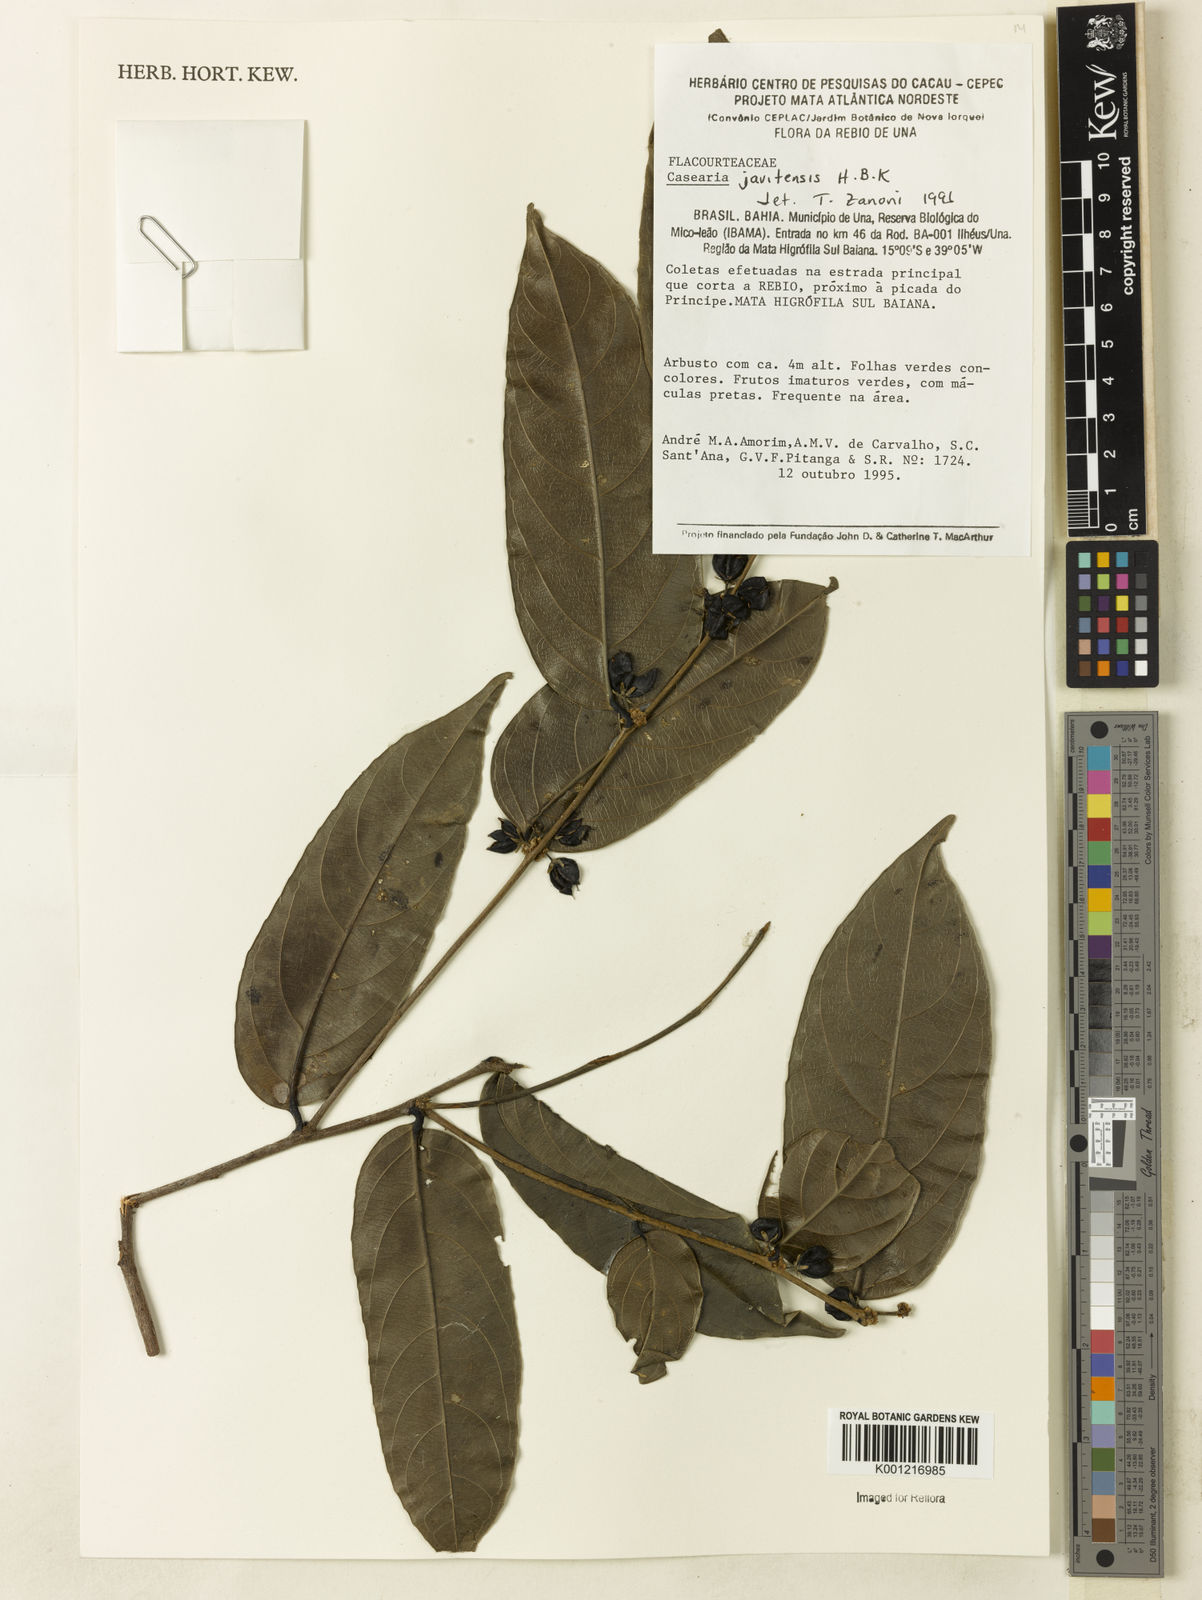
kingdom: Plantae
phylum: Tracheophyta
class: Magnoliopsida
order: Malpighiales
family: Salicaceae
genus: Piparea
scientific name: Piparea multiflora
